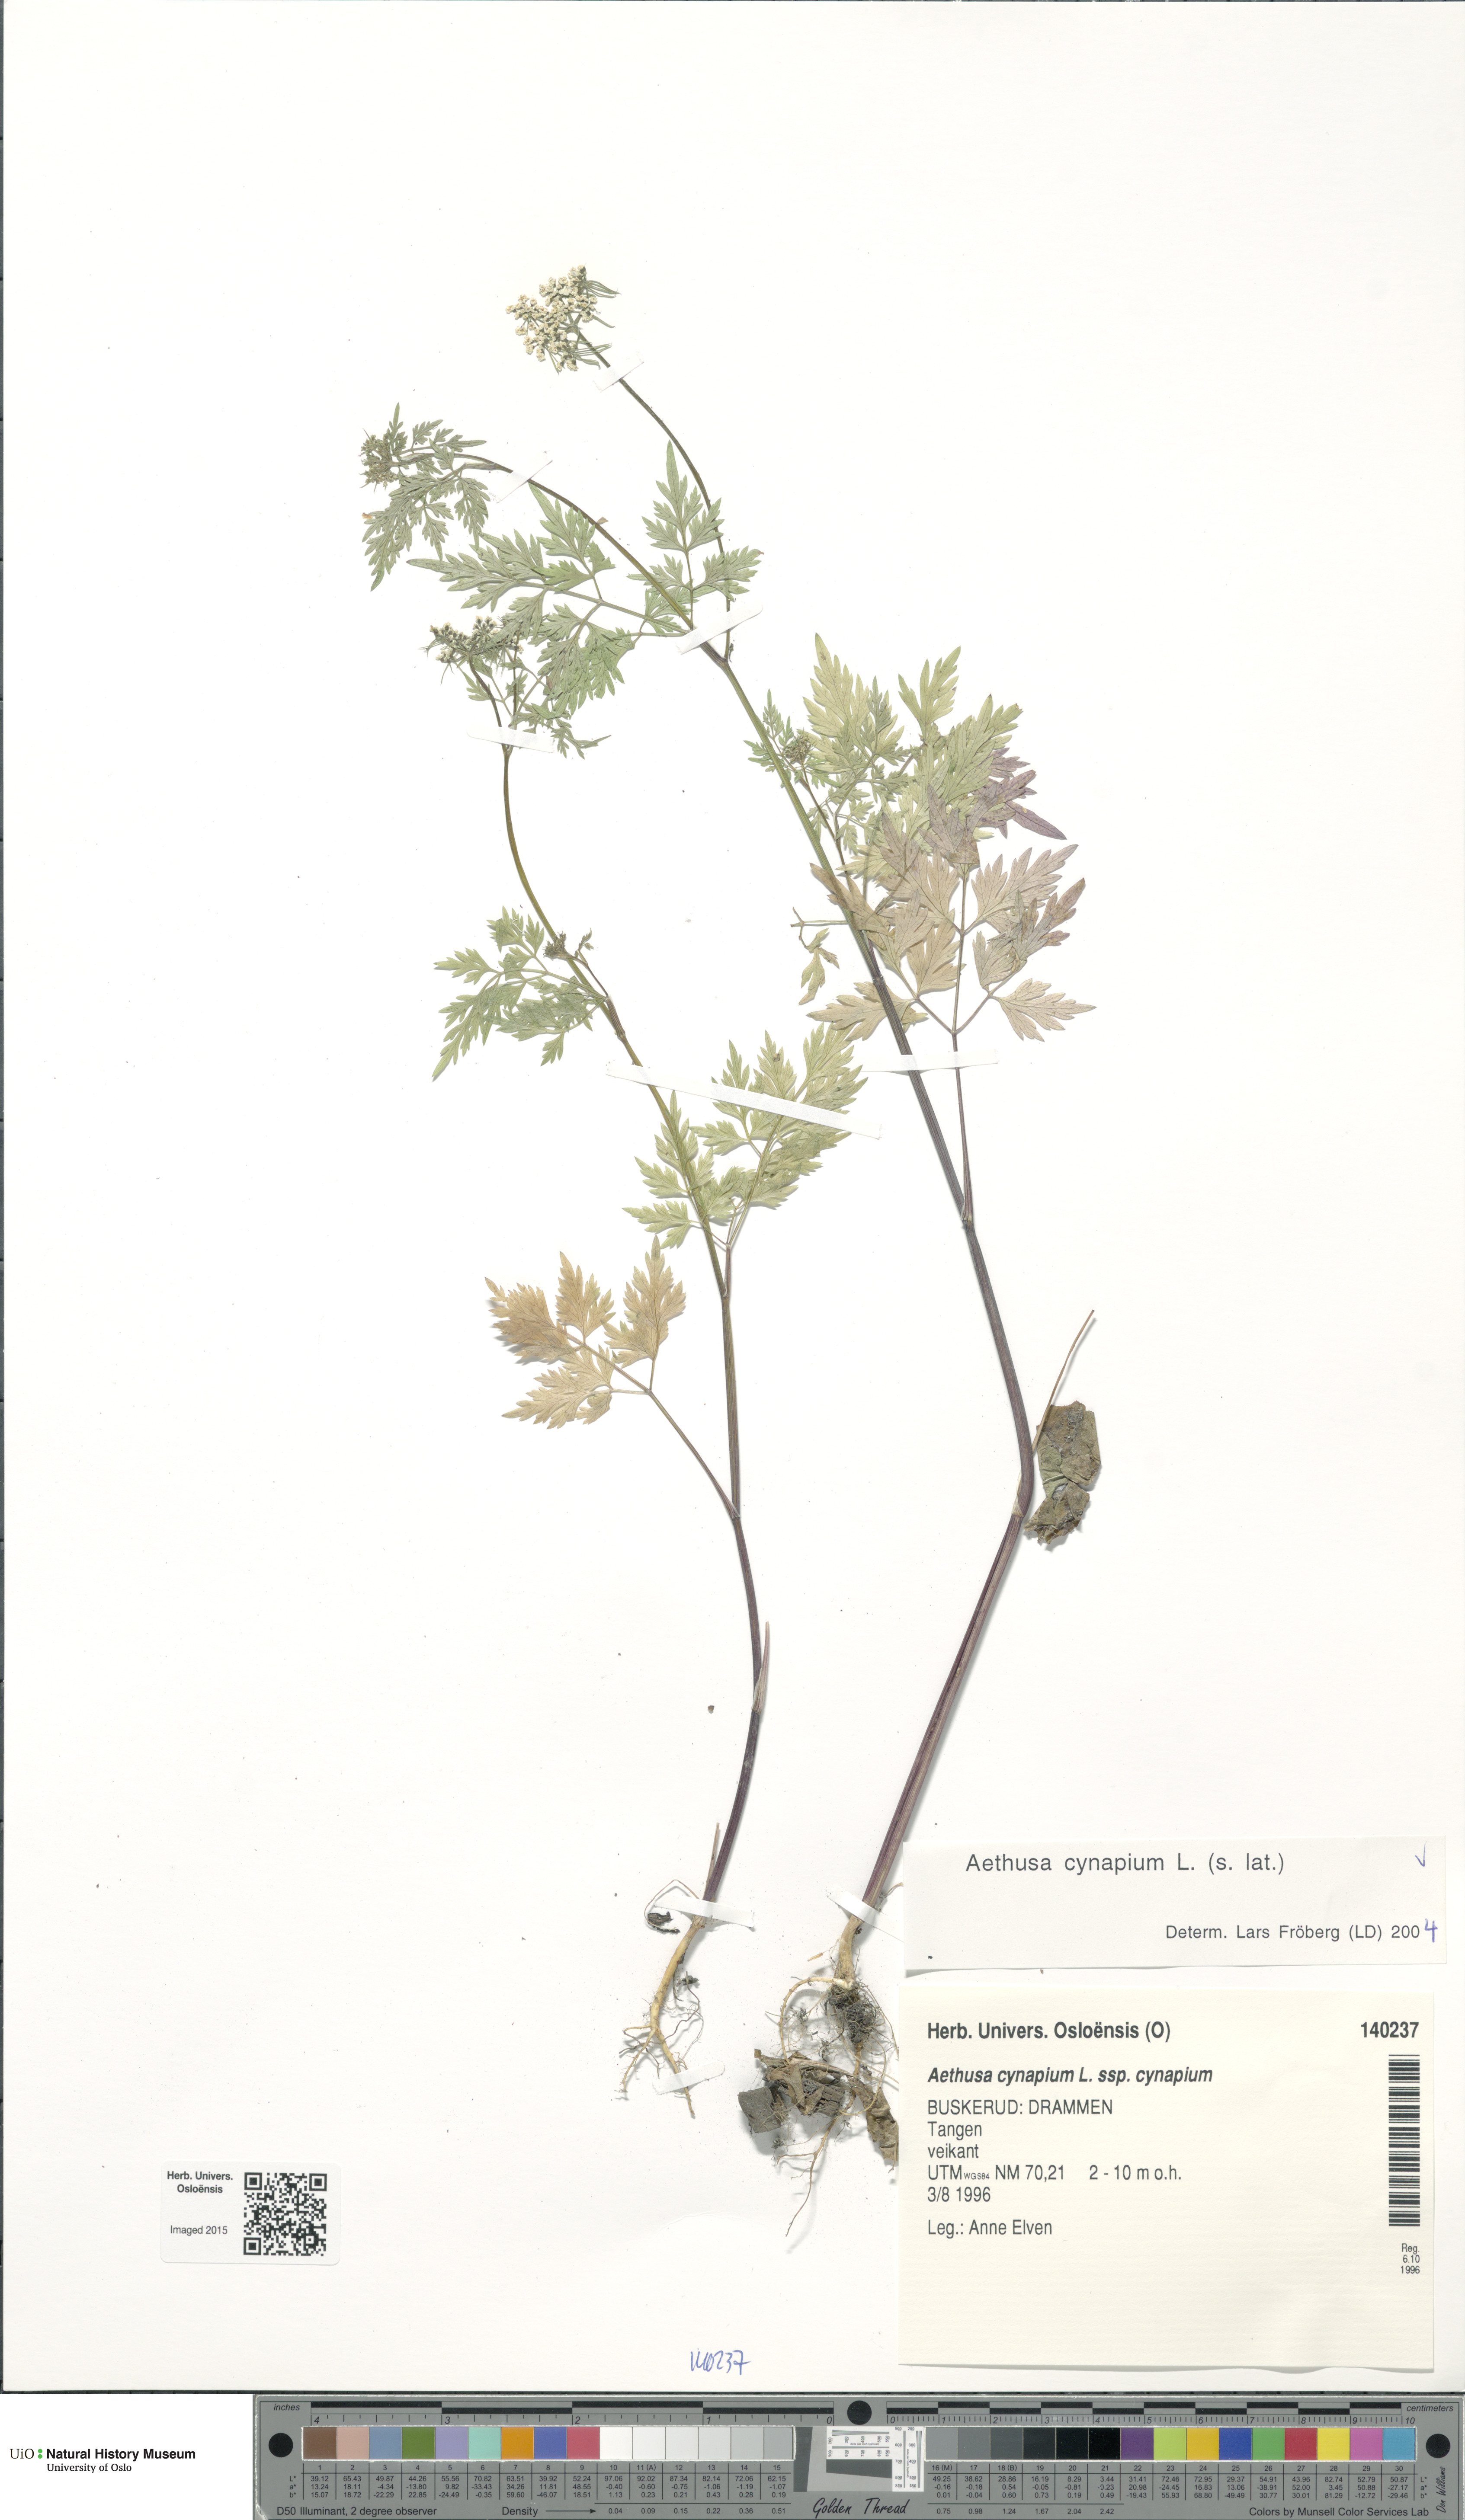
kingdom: Plantae
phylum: Tracheophyta
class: Magnoliopsida
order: Apiales
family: Apiaceae
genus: Aethusa
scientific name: Aethusa cynapium
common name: Fool's parsley
